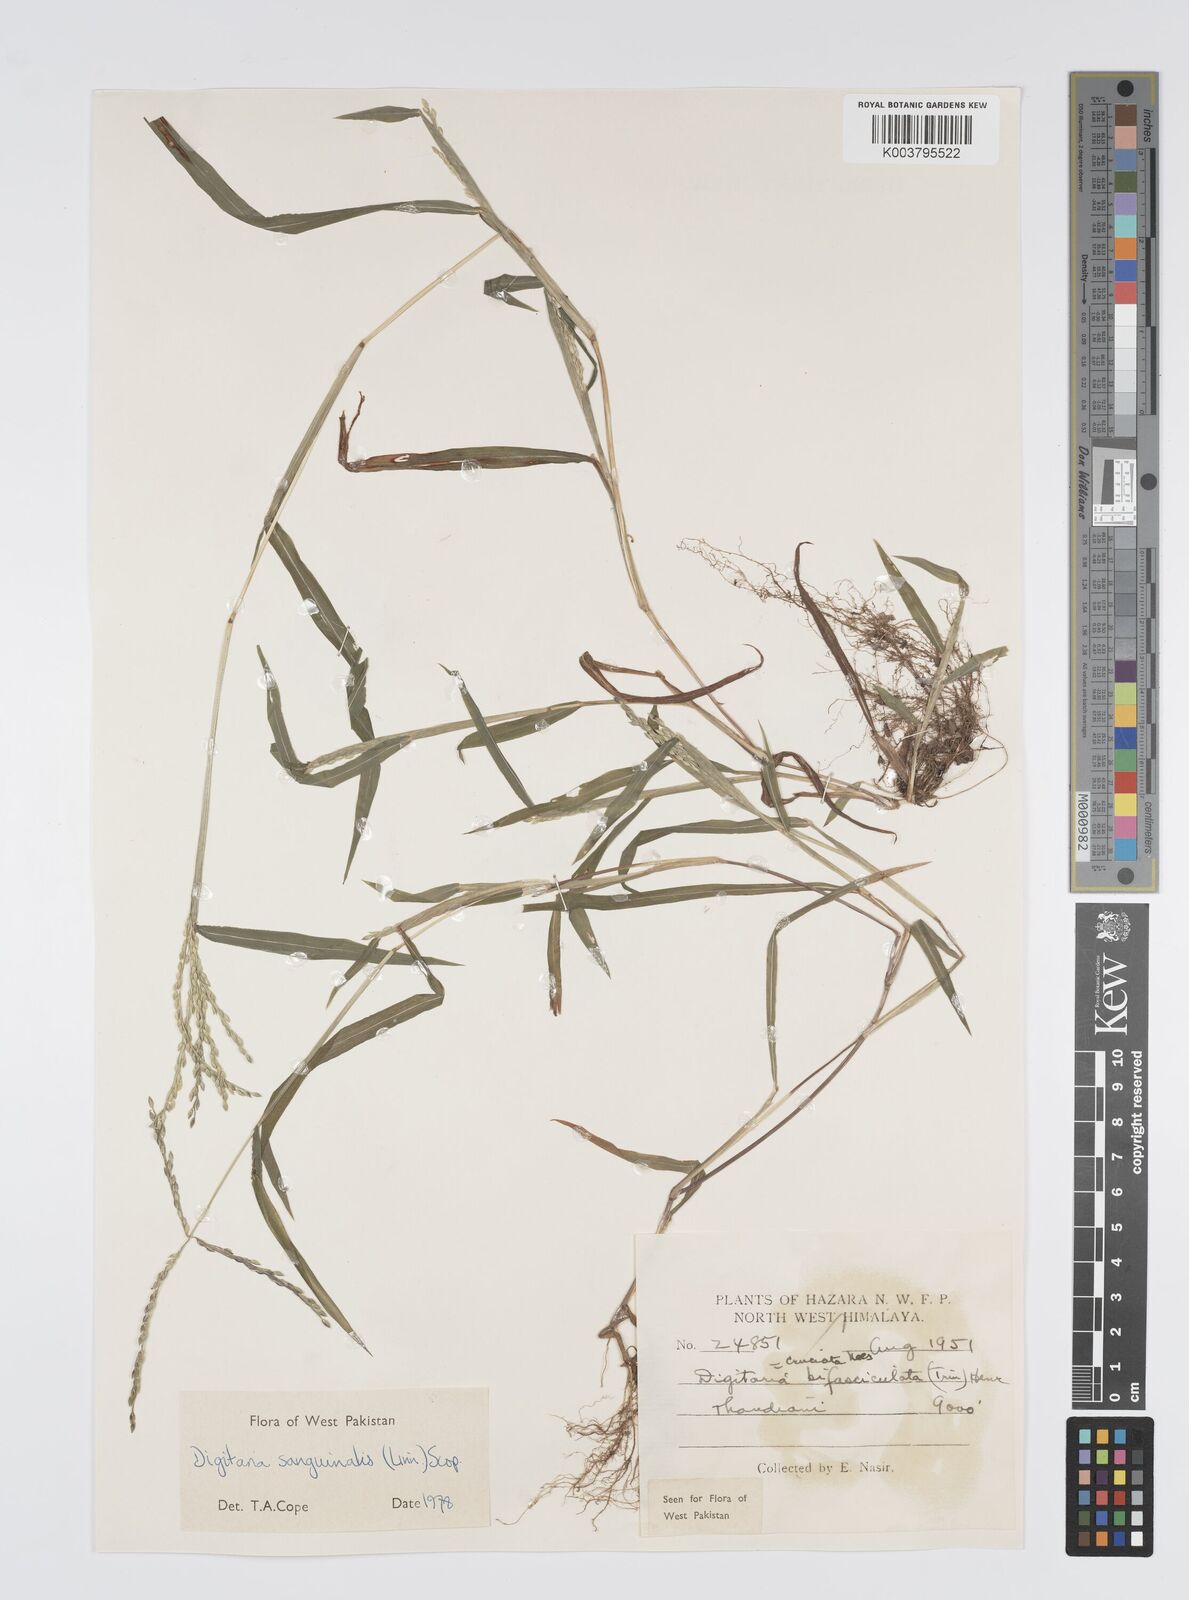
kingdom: Plantae
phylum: Tracheophyta
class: Liliopsida
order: Poales
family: Poaceae
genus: Digitaria
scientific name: Digitaria sanguinalis
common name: Hairy crabgrass
